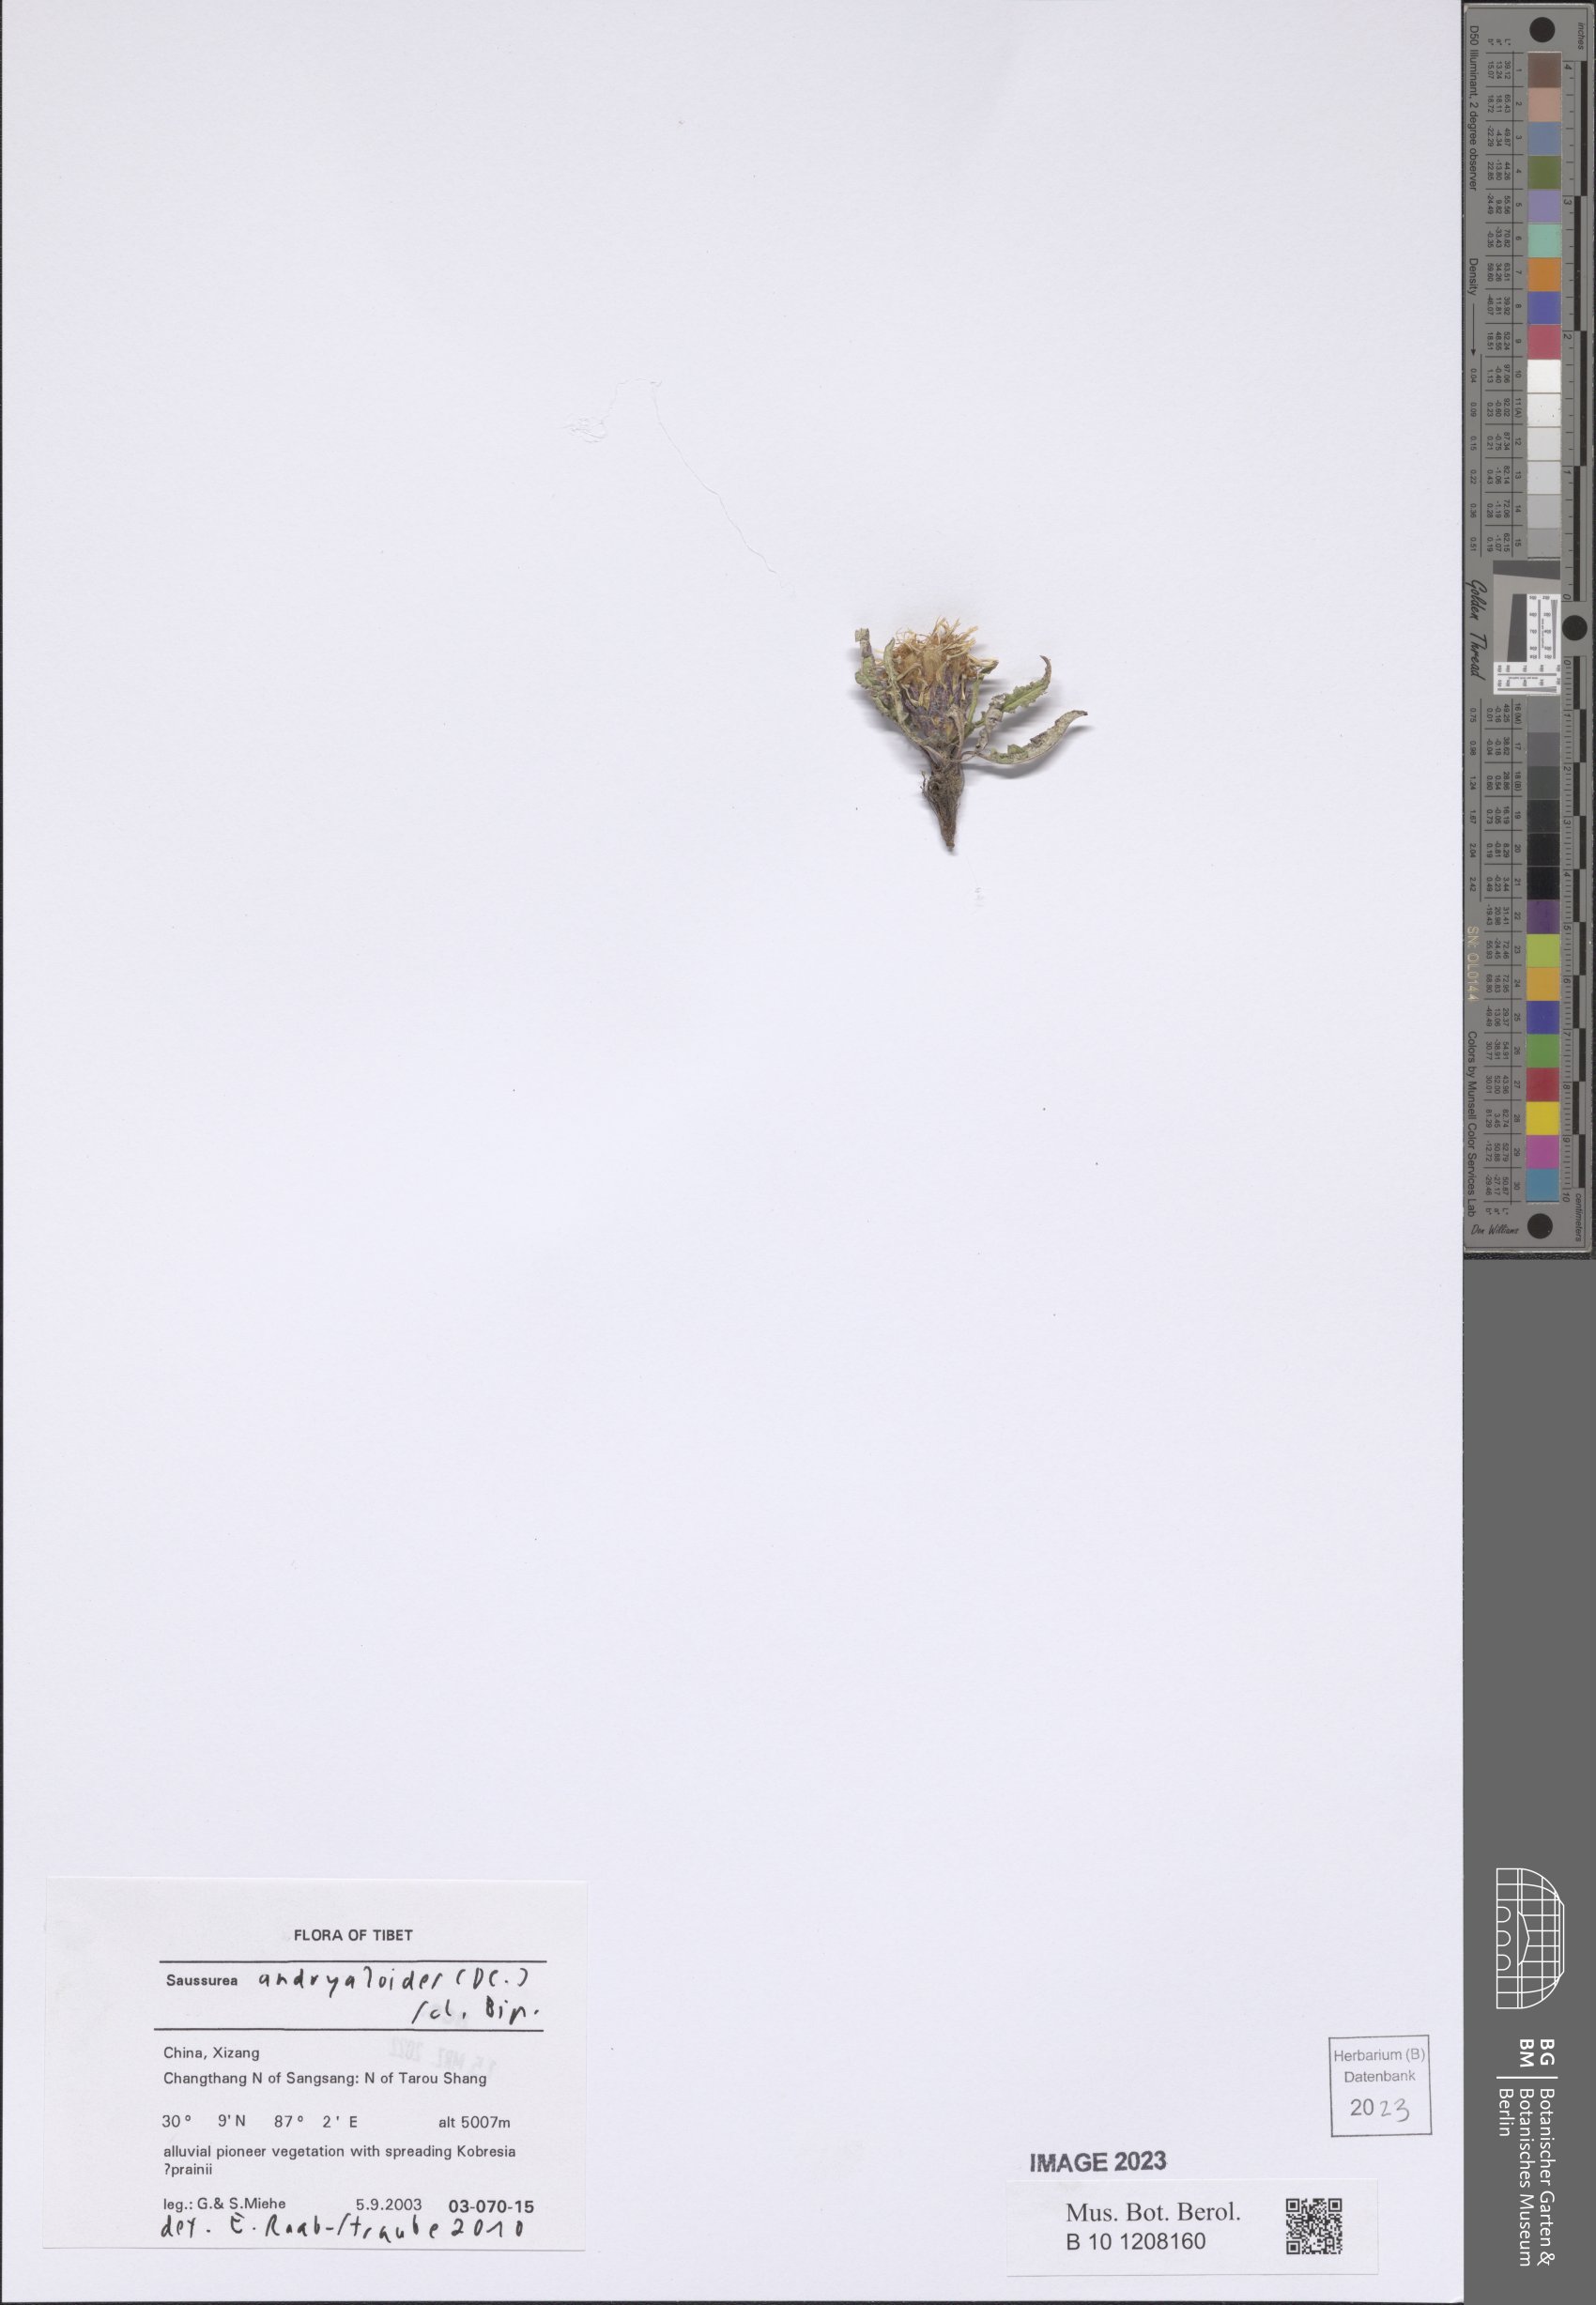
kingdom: Plantae
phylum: Tracheophyta
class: Magnoliopsida
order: Asterales
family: Asteraceae
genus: Saussurea
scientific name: Saussurea andryaloides
